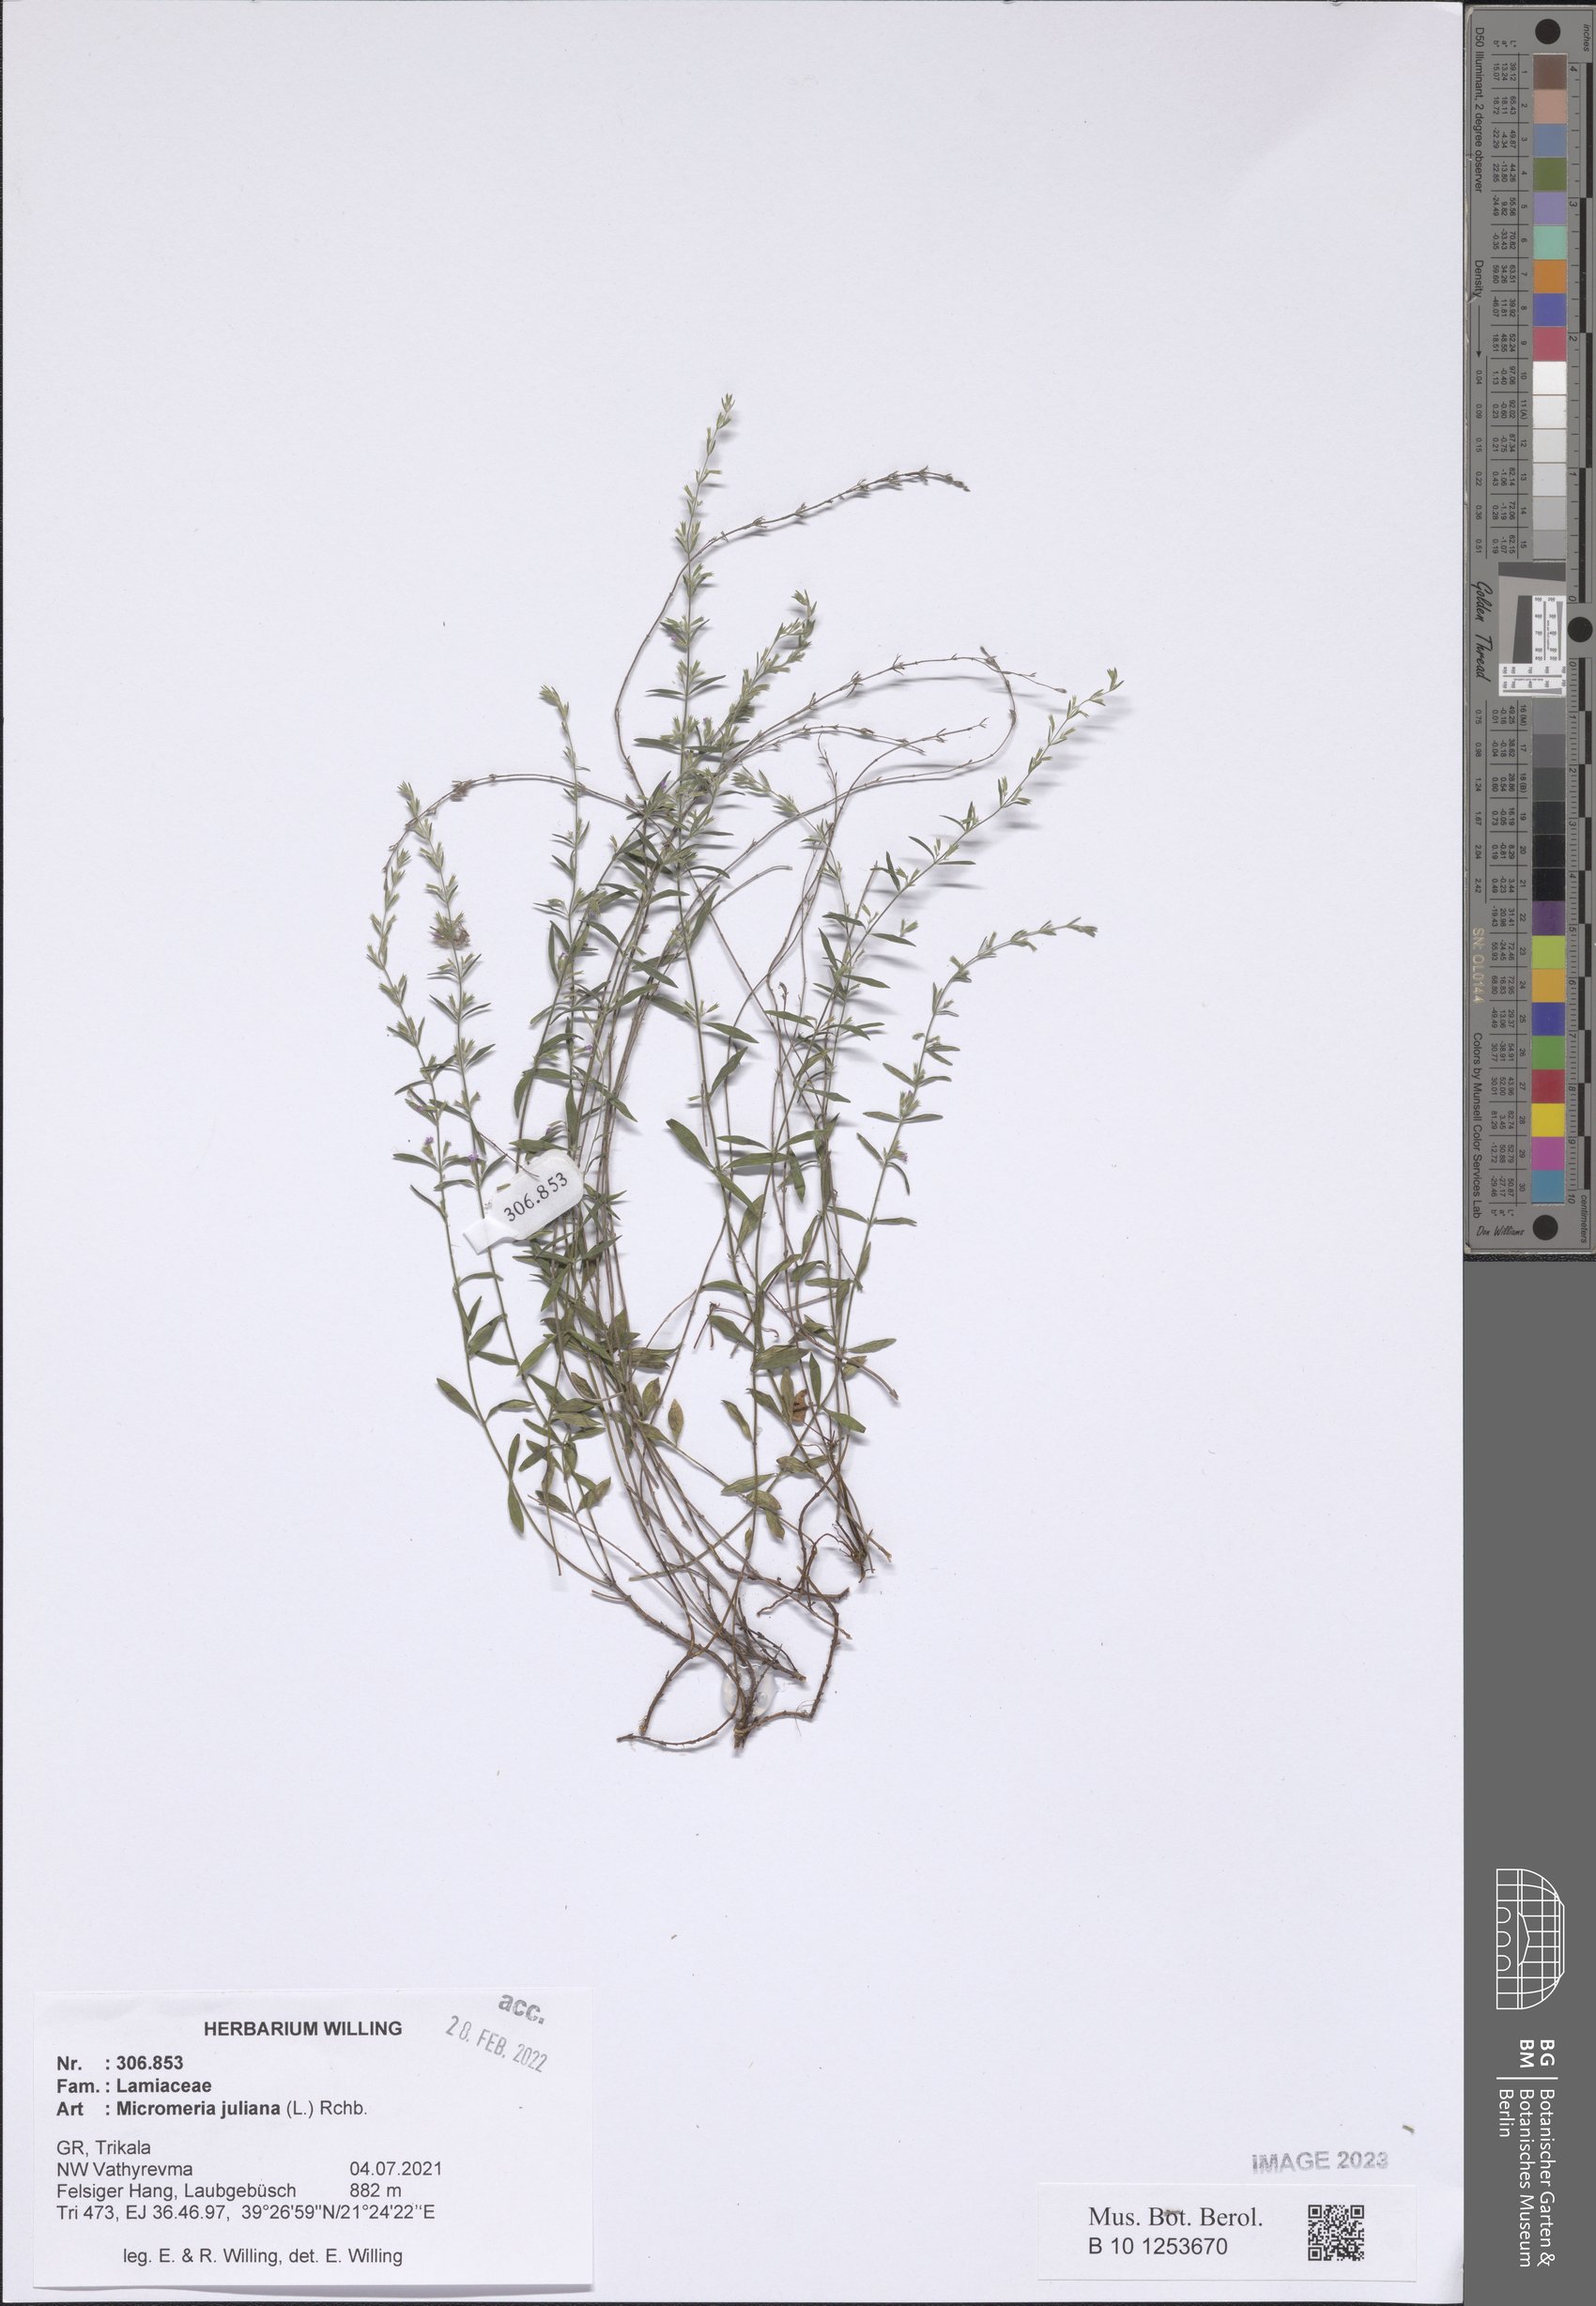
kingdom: Plantae
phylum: Tracheophyta
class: Magnoliopsida
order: Lamiales
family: Lamiaceae
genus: Micromeria
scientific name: Micromeria juliana
